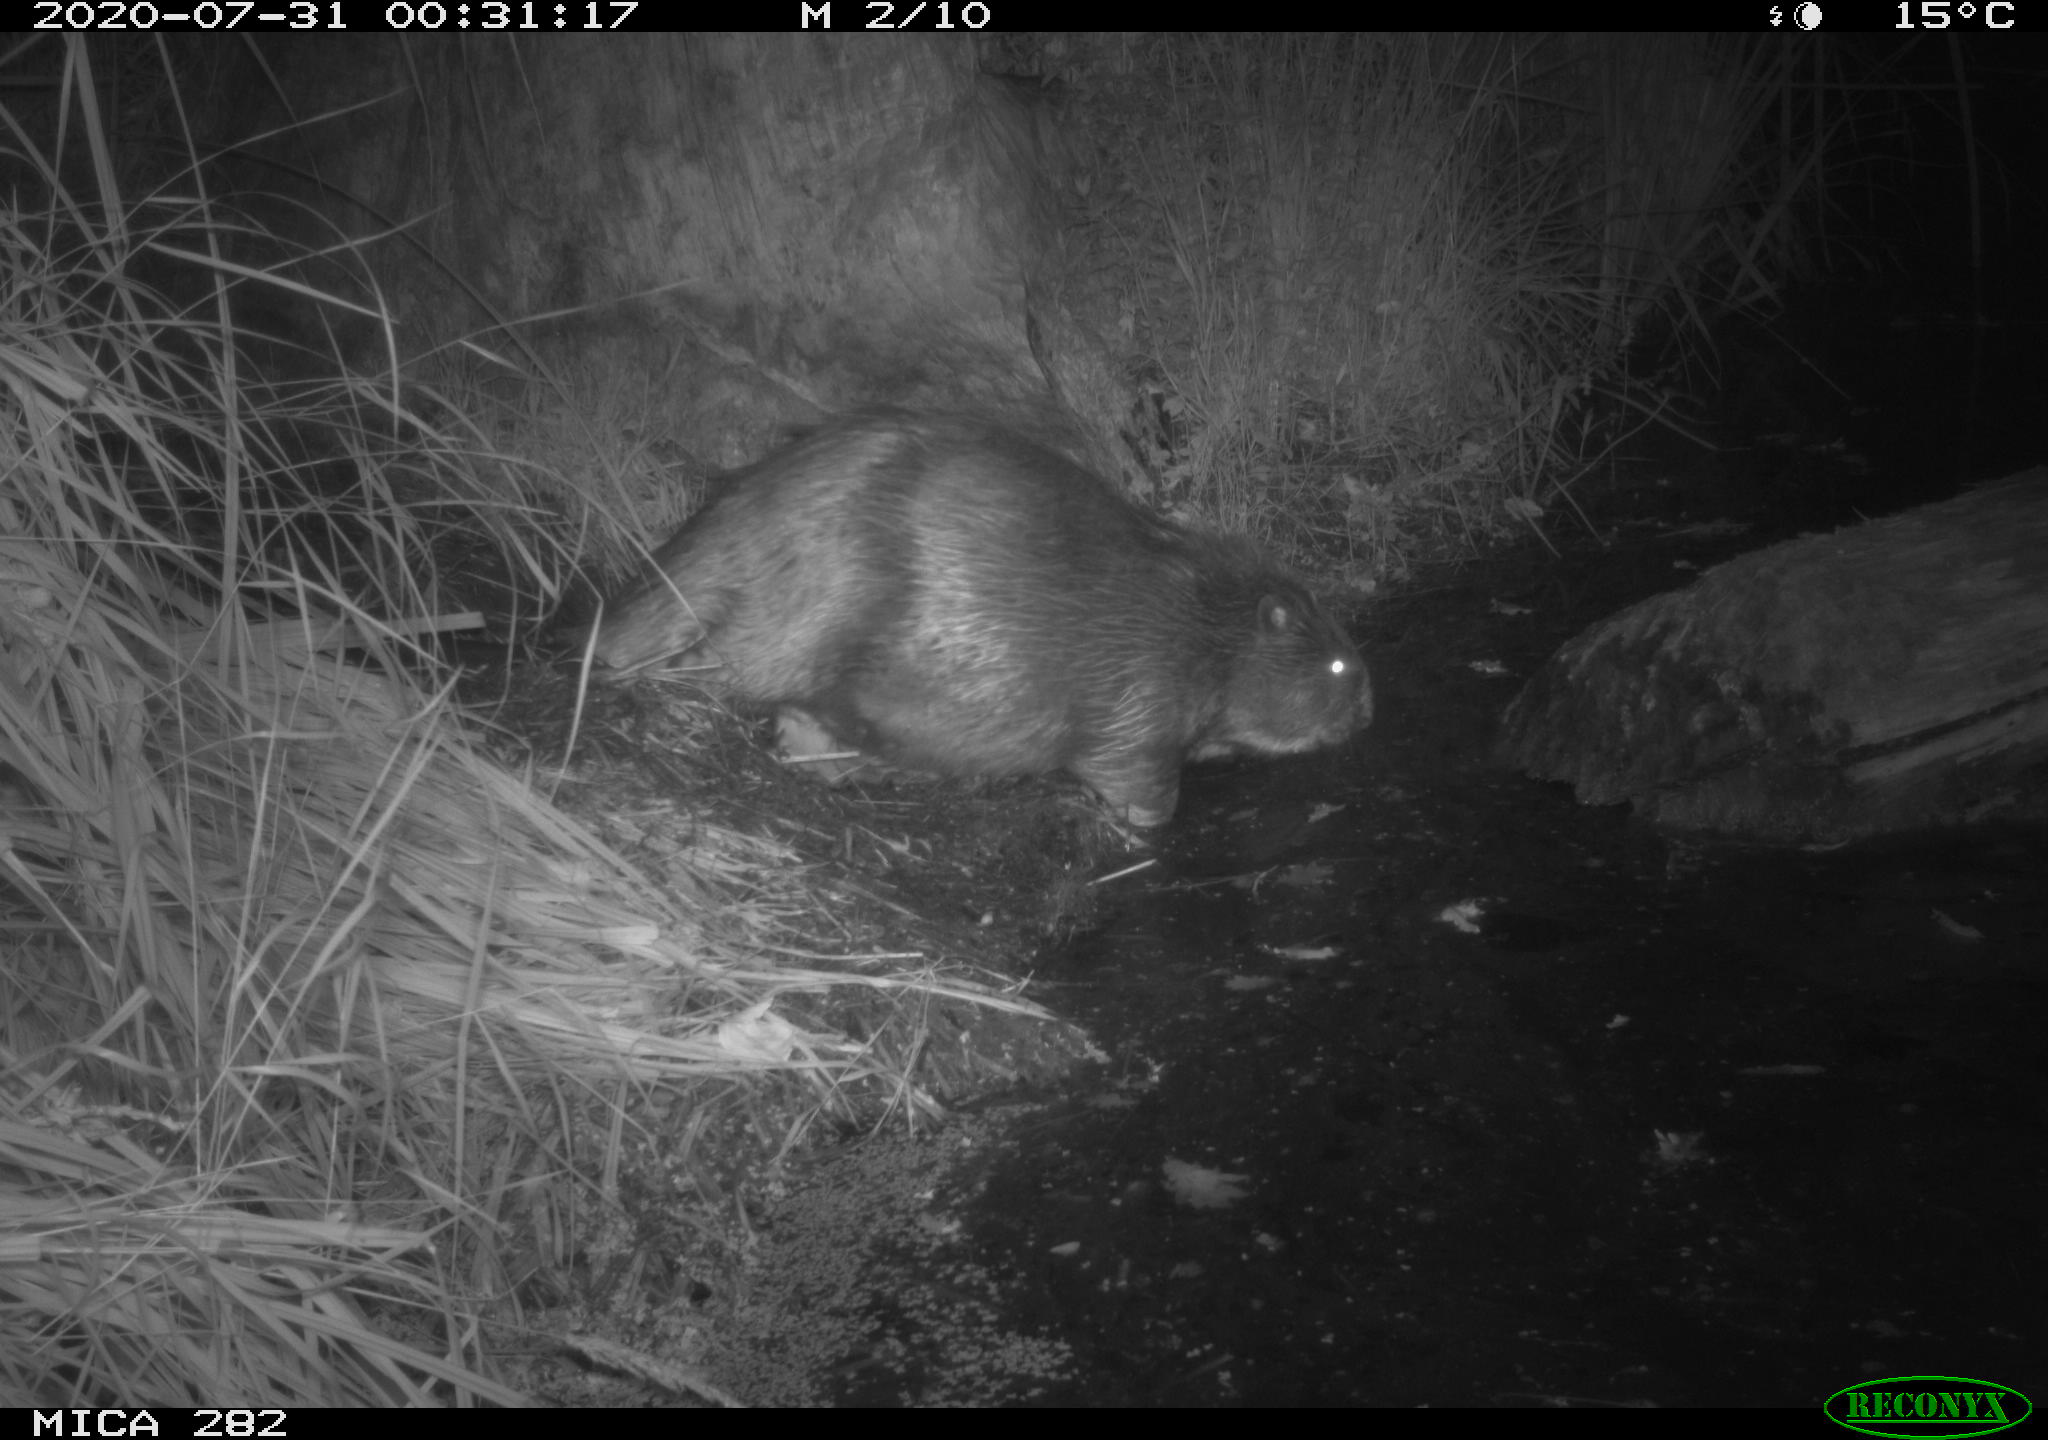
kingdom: Animalia
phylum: Chordata
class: Mammalia
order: Rodentia
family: Castoridae
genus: Castor
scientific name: Castor fiber
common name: Eurasian beaver
